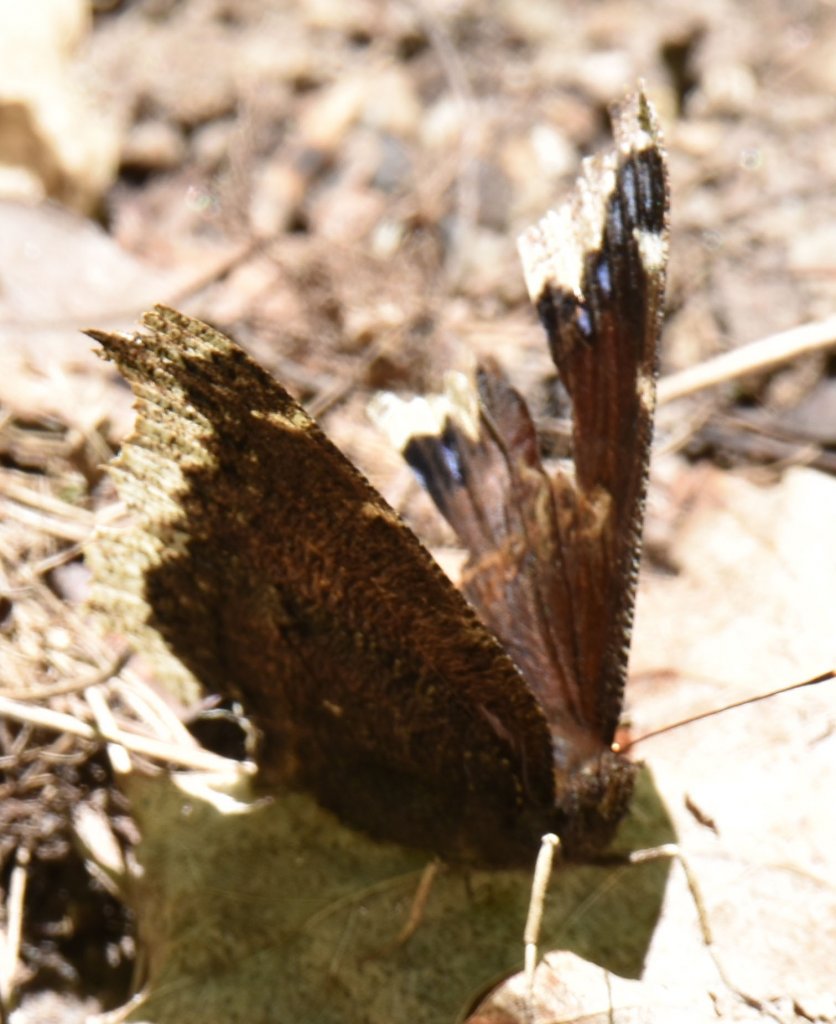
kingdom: Animalia
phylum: Arthropoda
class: Insecta
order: Lepidoptera
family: Nymphalidae
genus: Nymphalis
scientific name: Nymphalis antiopa
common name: Mourning Cloak
